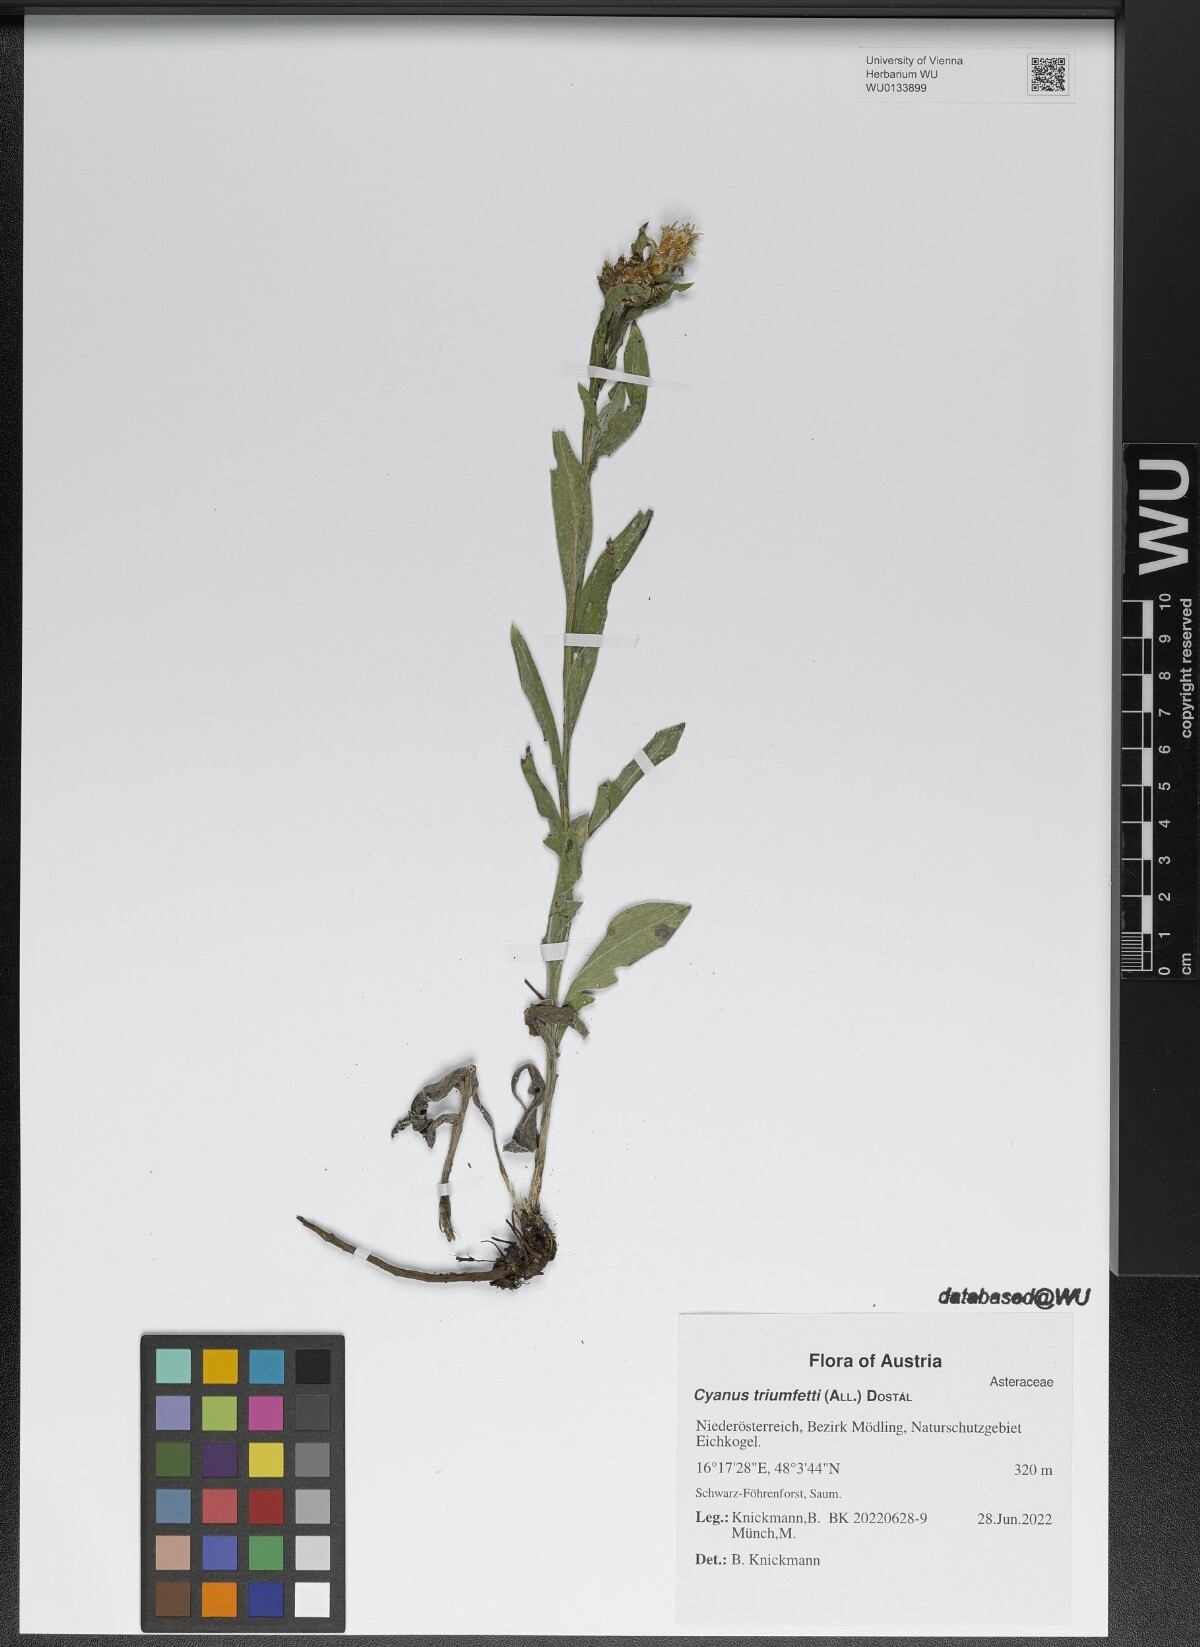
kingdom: Plantae
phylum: Tracheophyta
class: Magnoliopsida
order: Asterales
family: Asteraceae
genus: Centaurea
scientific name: Centaurea triumfettii
